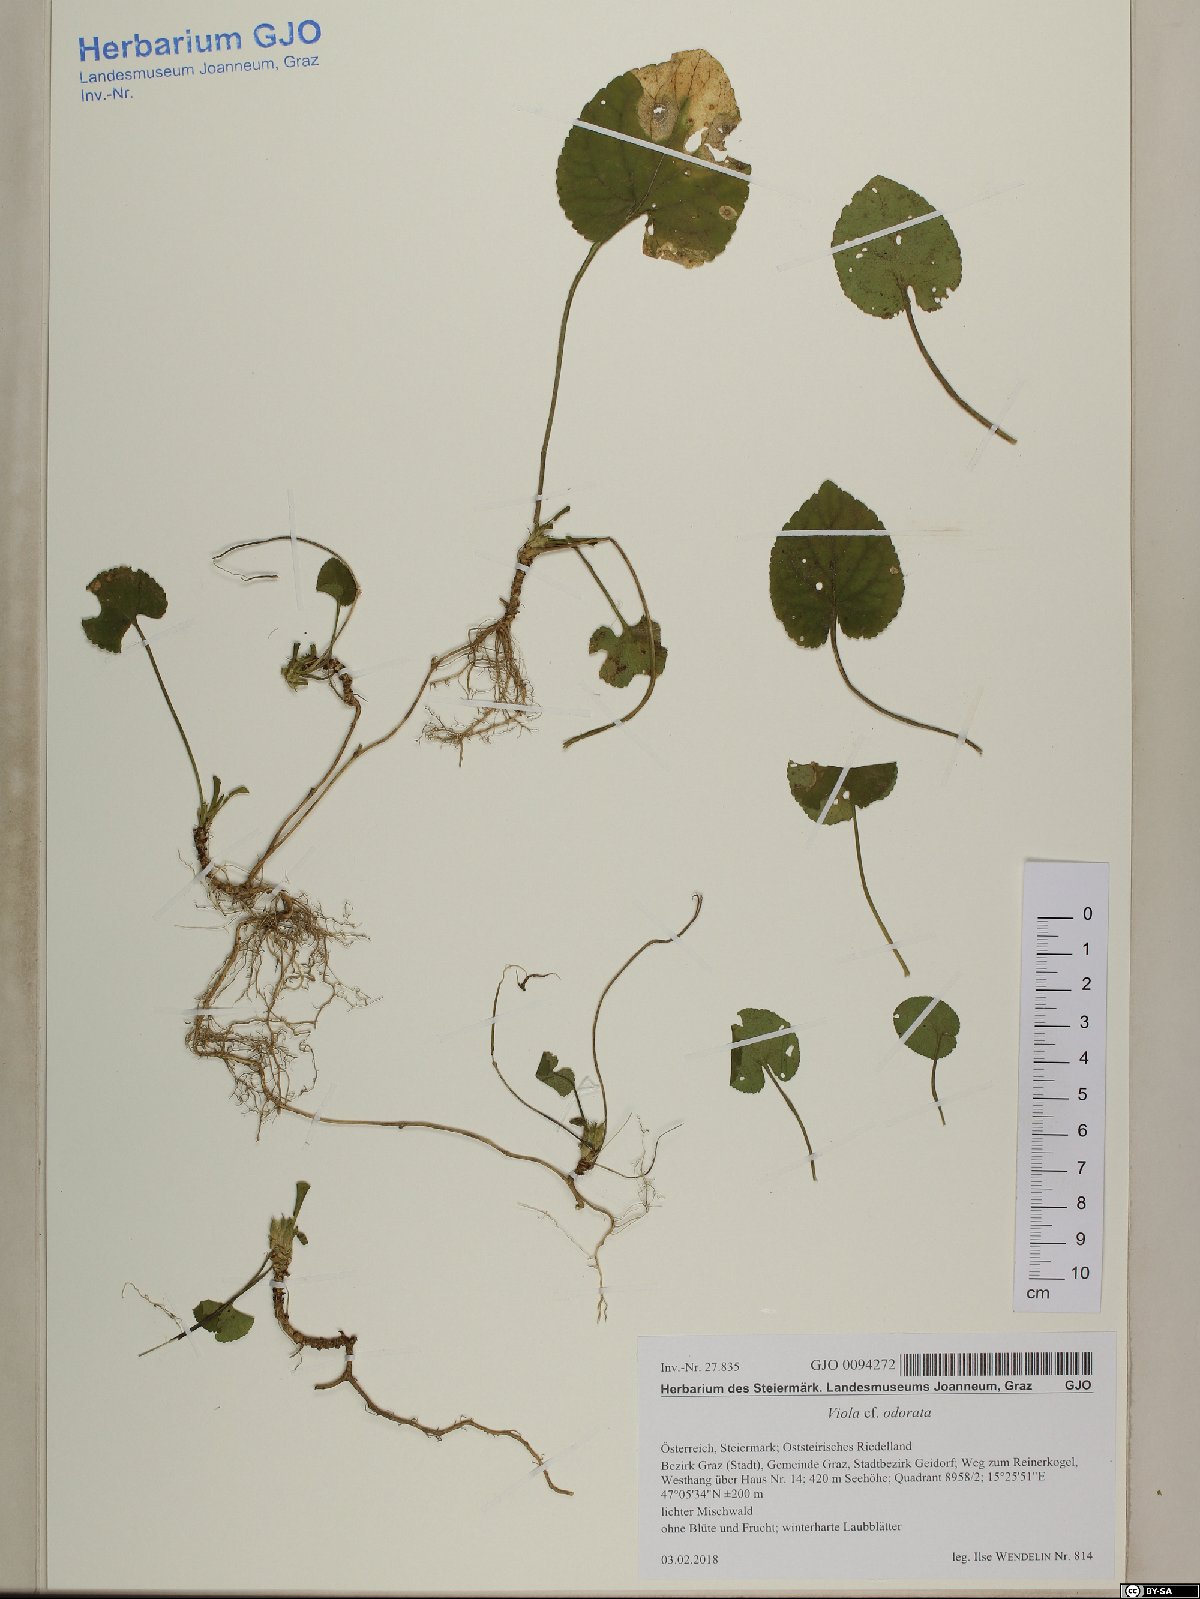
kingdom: Plantae
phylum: Tracheophyta
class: Magnoliopsida
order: Malpighiales
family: Violaceae
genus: Viola
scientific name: Viola odorata
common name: Sweet violet
